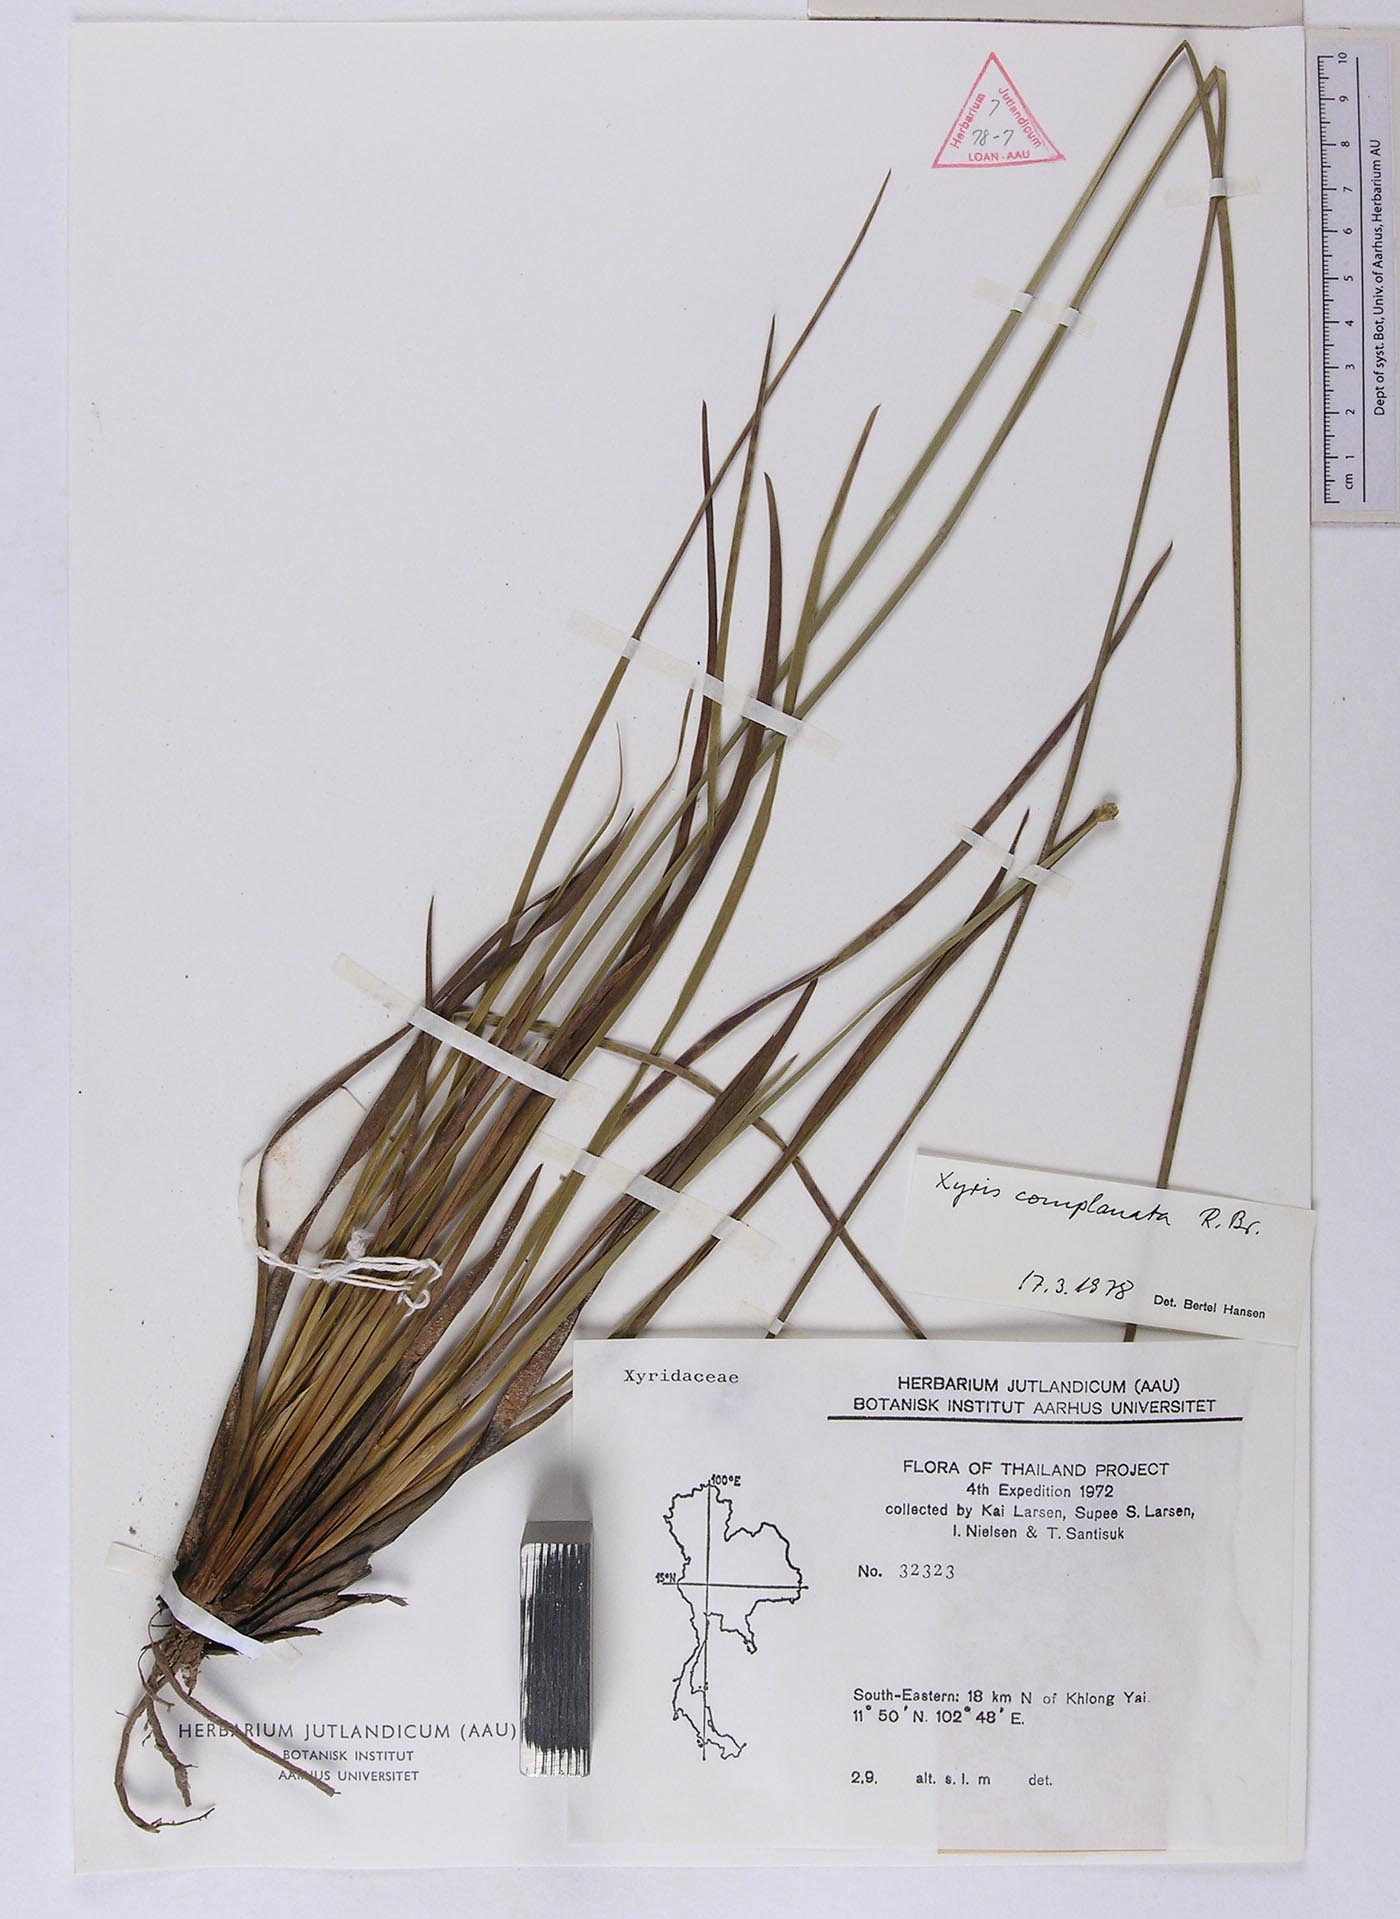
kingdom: Plantae
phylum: Tracheophyta
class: Liliopsida
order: Poales
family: Xyridaceae
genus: Xyris
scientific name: Xyris complanata
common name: Hawai'i yelloweyed grass
